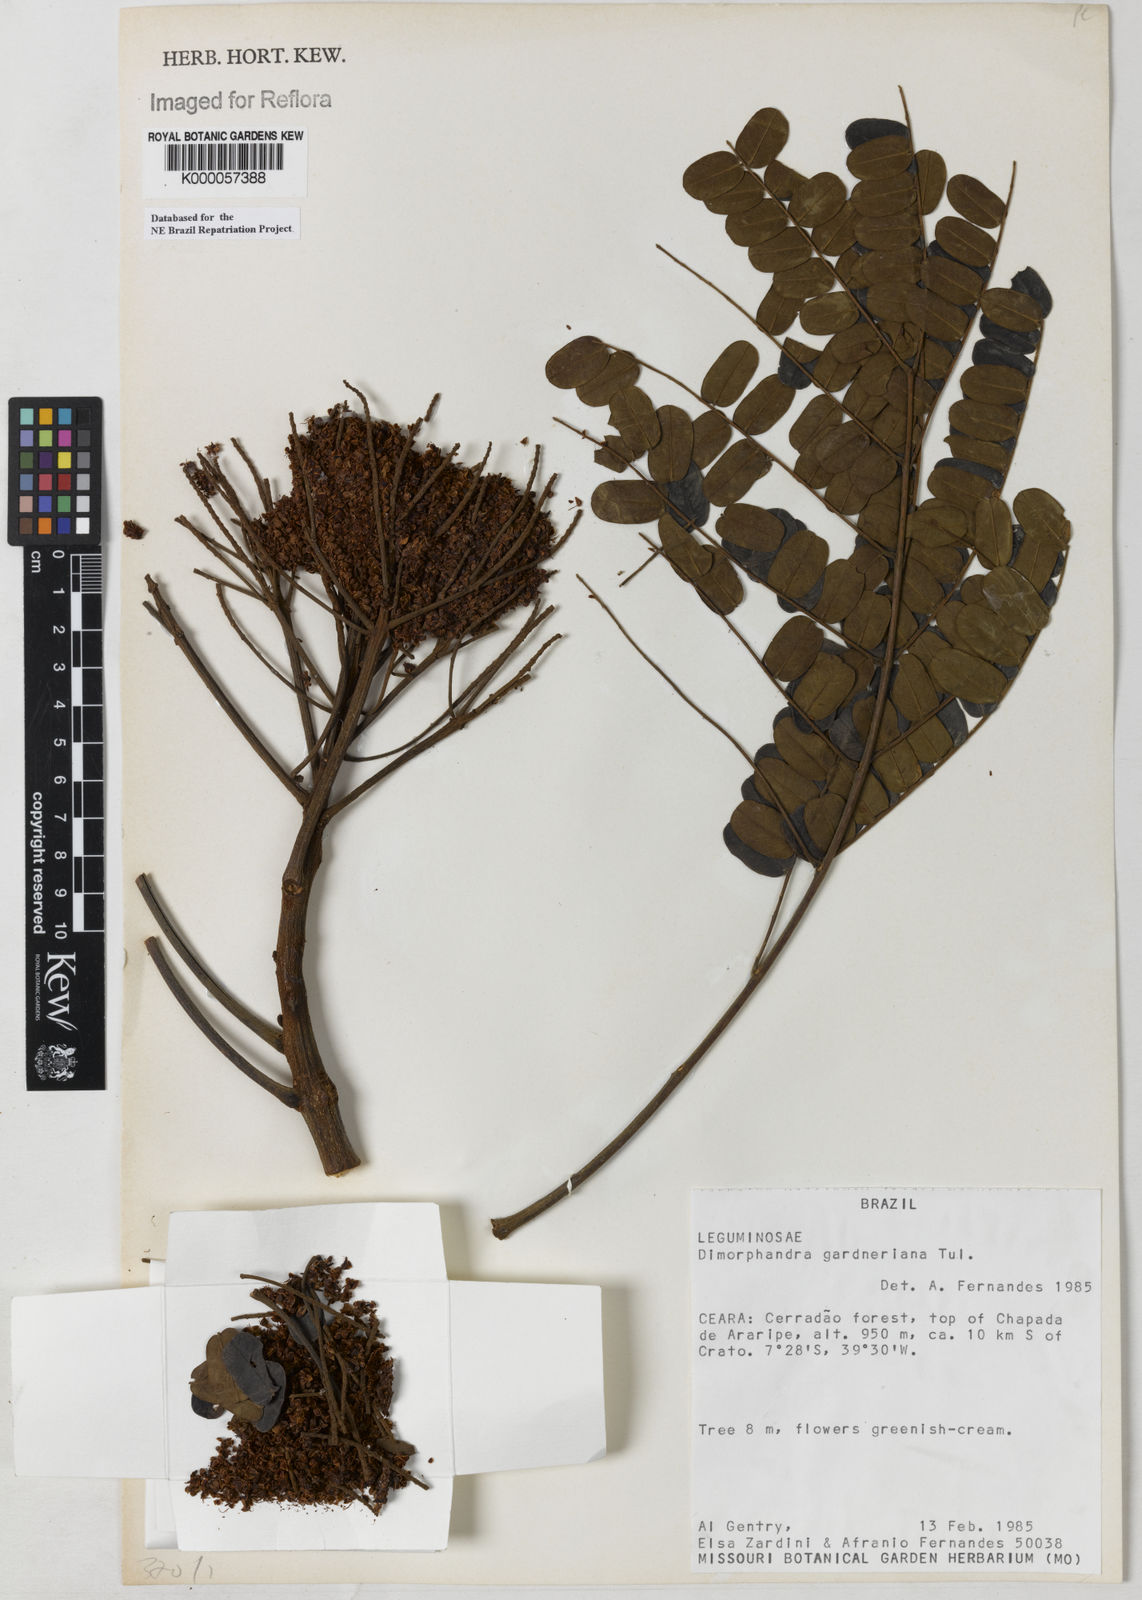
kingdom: Plantae
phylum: Tracheophyta
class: Magnoliopsida
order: Fabales
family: Fabaceae
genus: Dimorphandra
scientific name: Dimorphandra gardneriana
